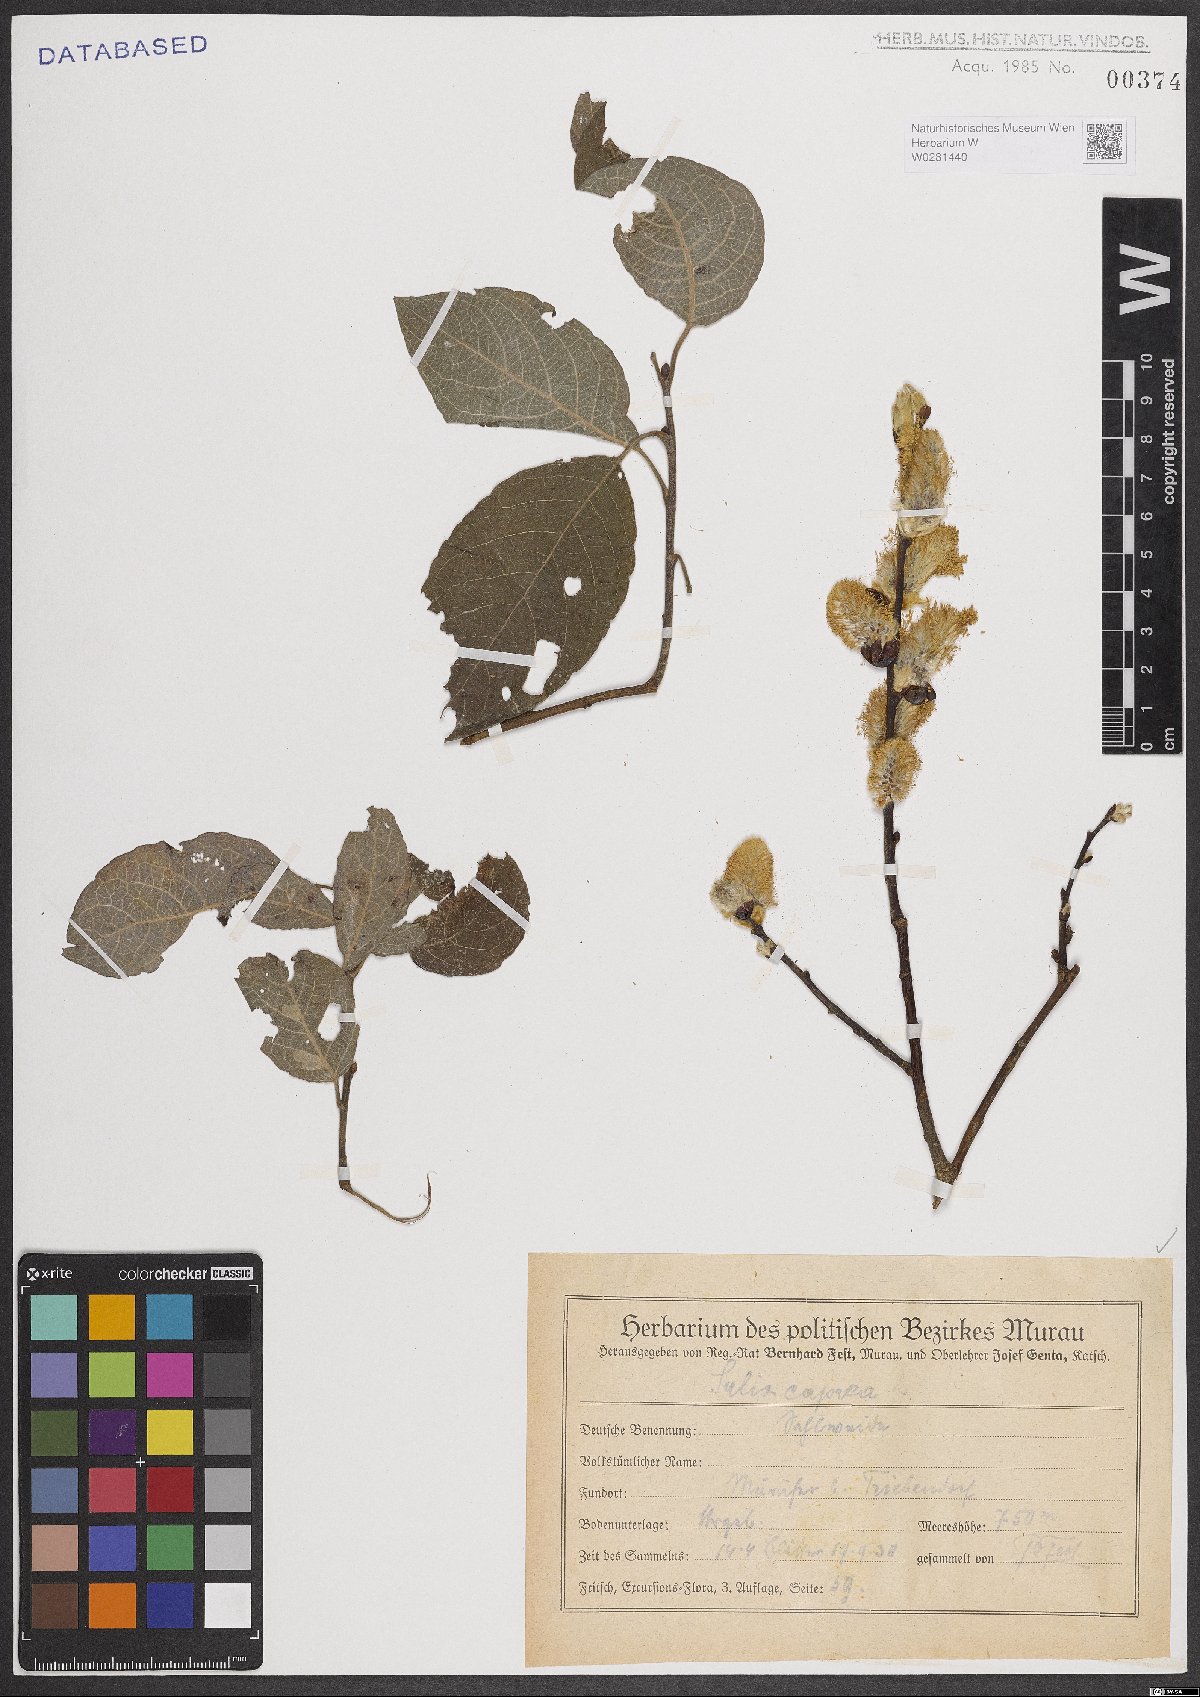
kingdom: Plantae
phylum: Tracheophyta
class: Magnoliopsida
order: Malpighiales
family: Salicaceae
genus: Salix
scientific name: Salix caprea
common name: Goat willow
